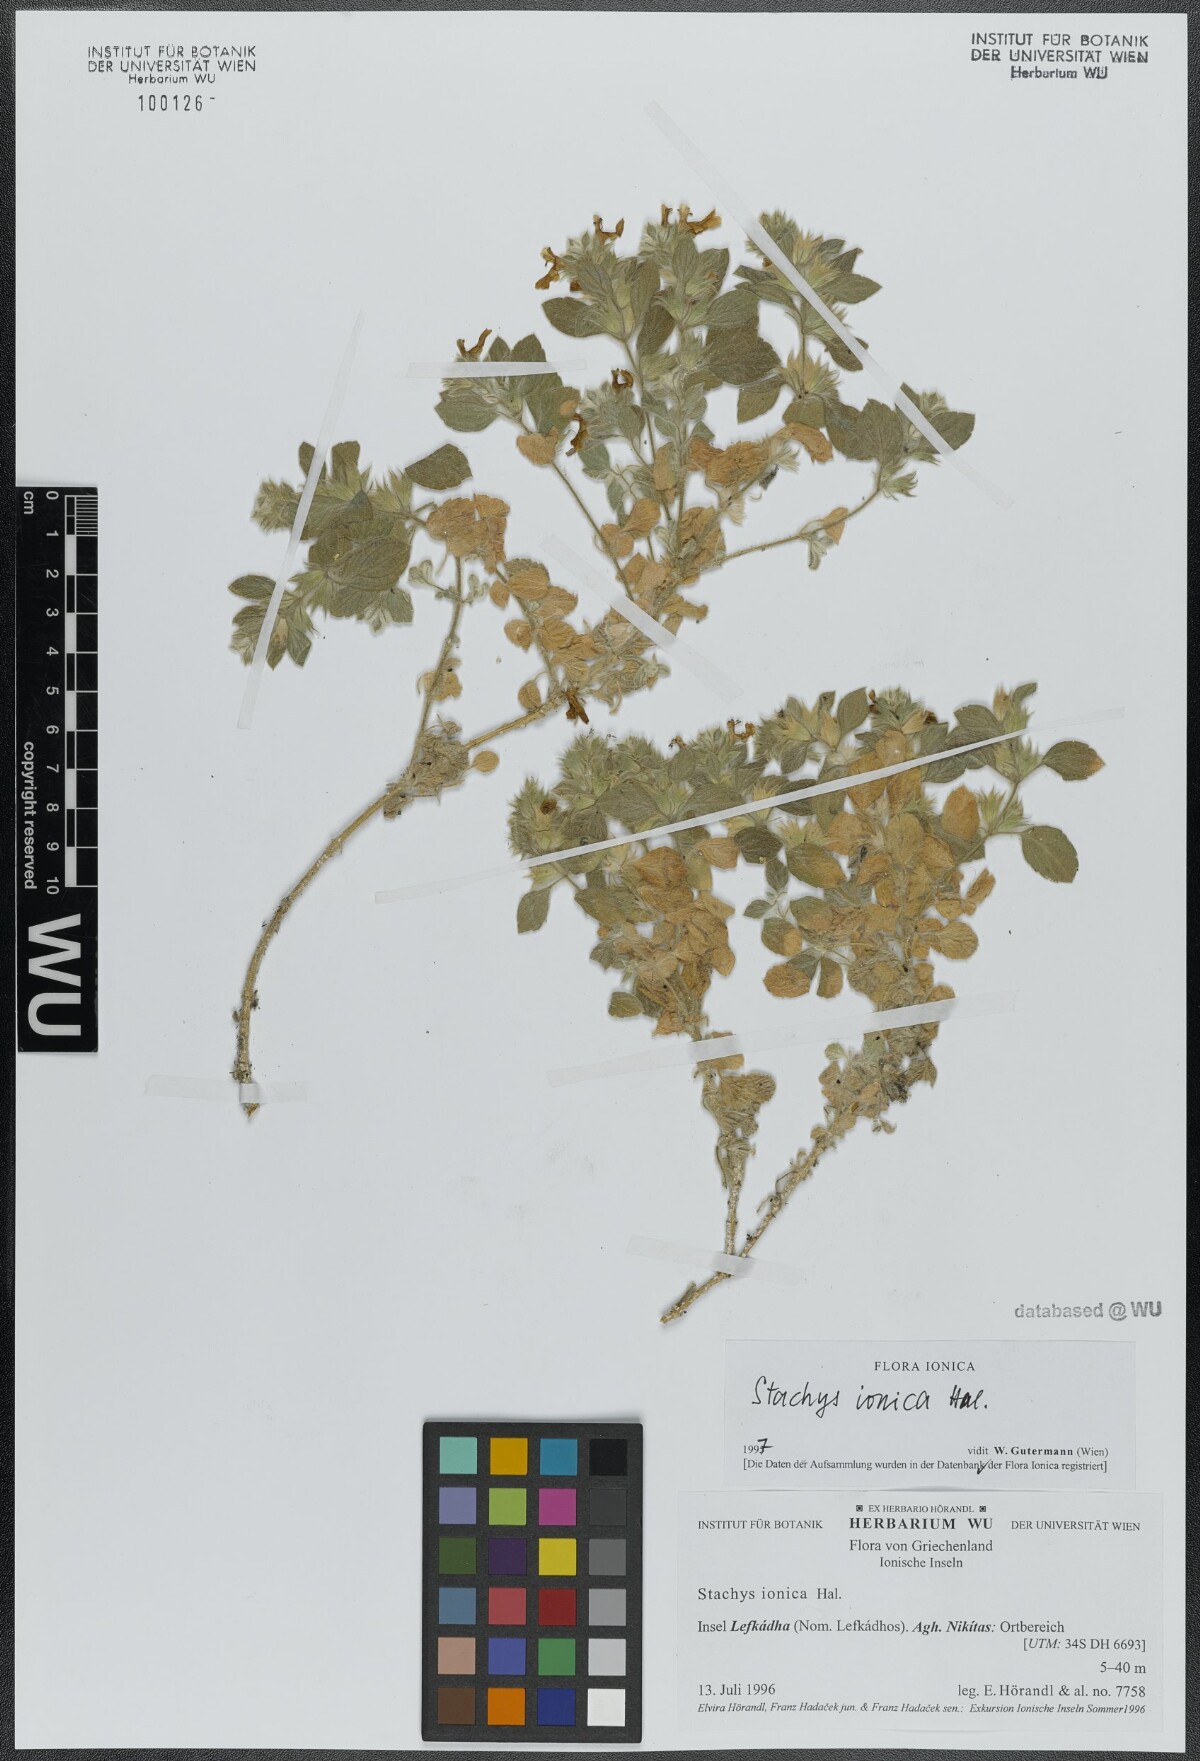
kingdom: Plantae
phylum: Tracheophyta
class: Magnoliopsida
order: Lamiales
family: Lamiaceae
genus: Stachys
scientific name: Stachys ionica
